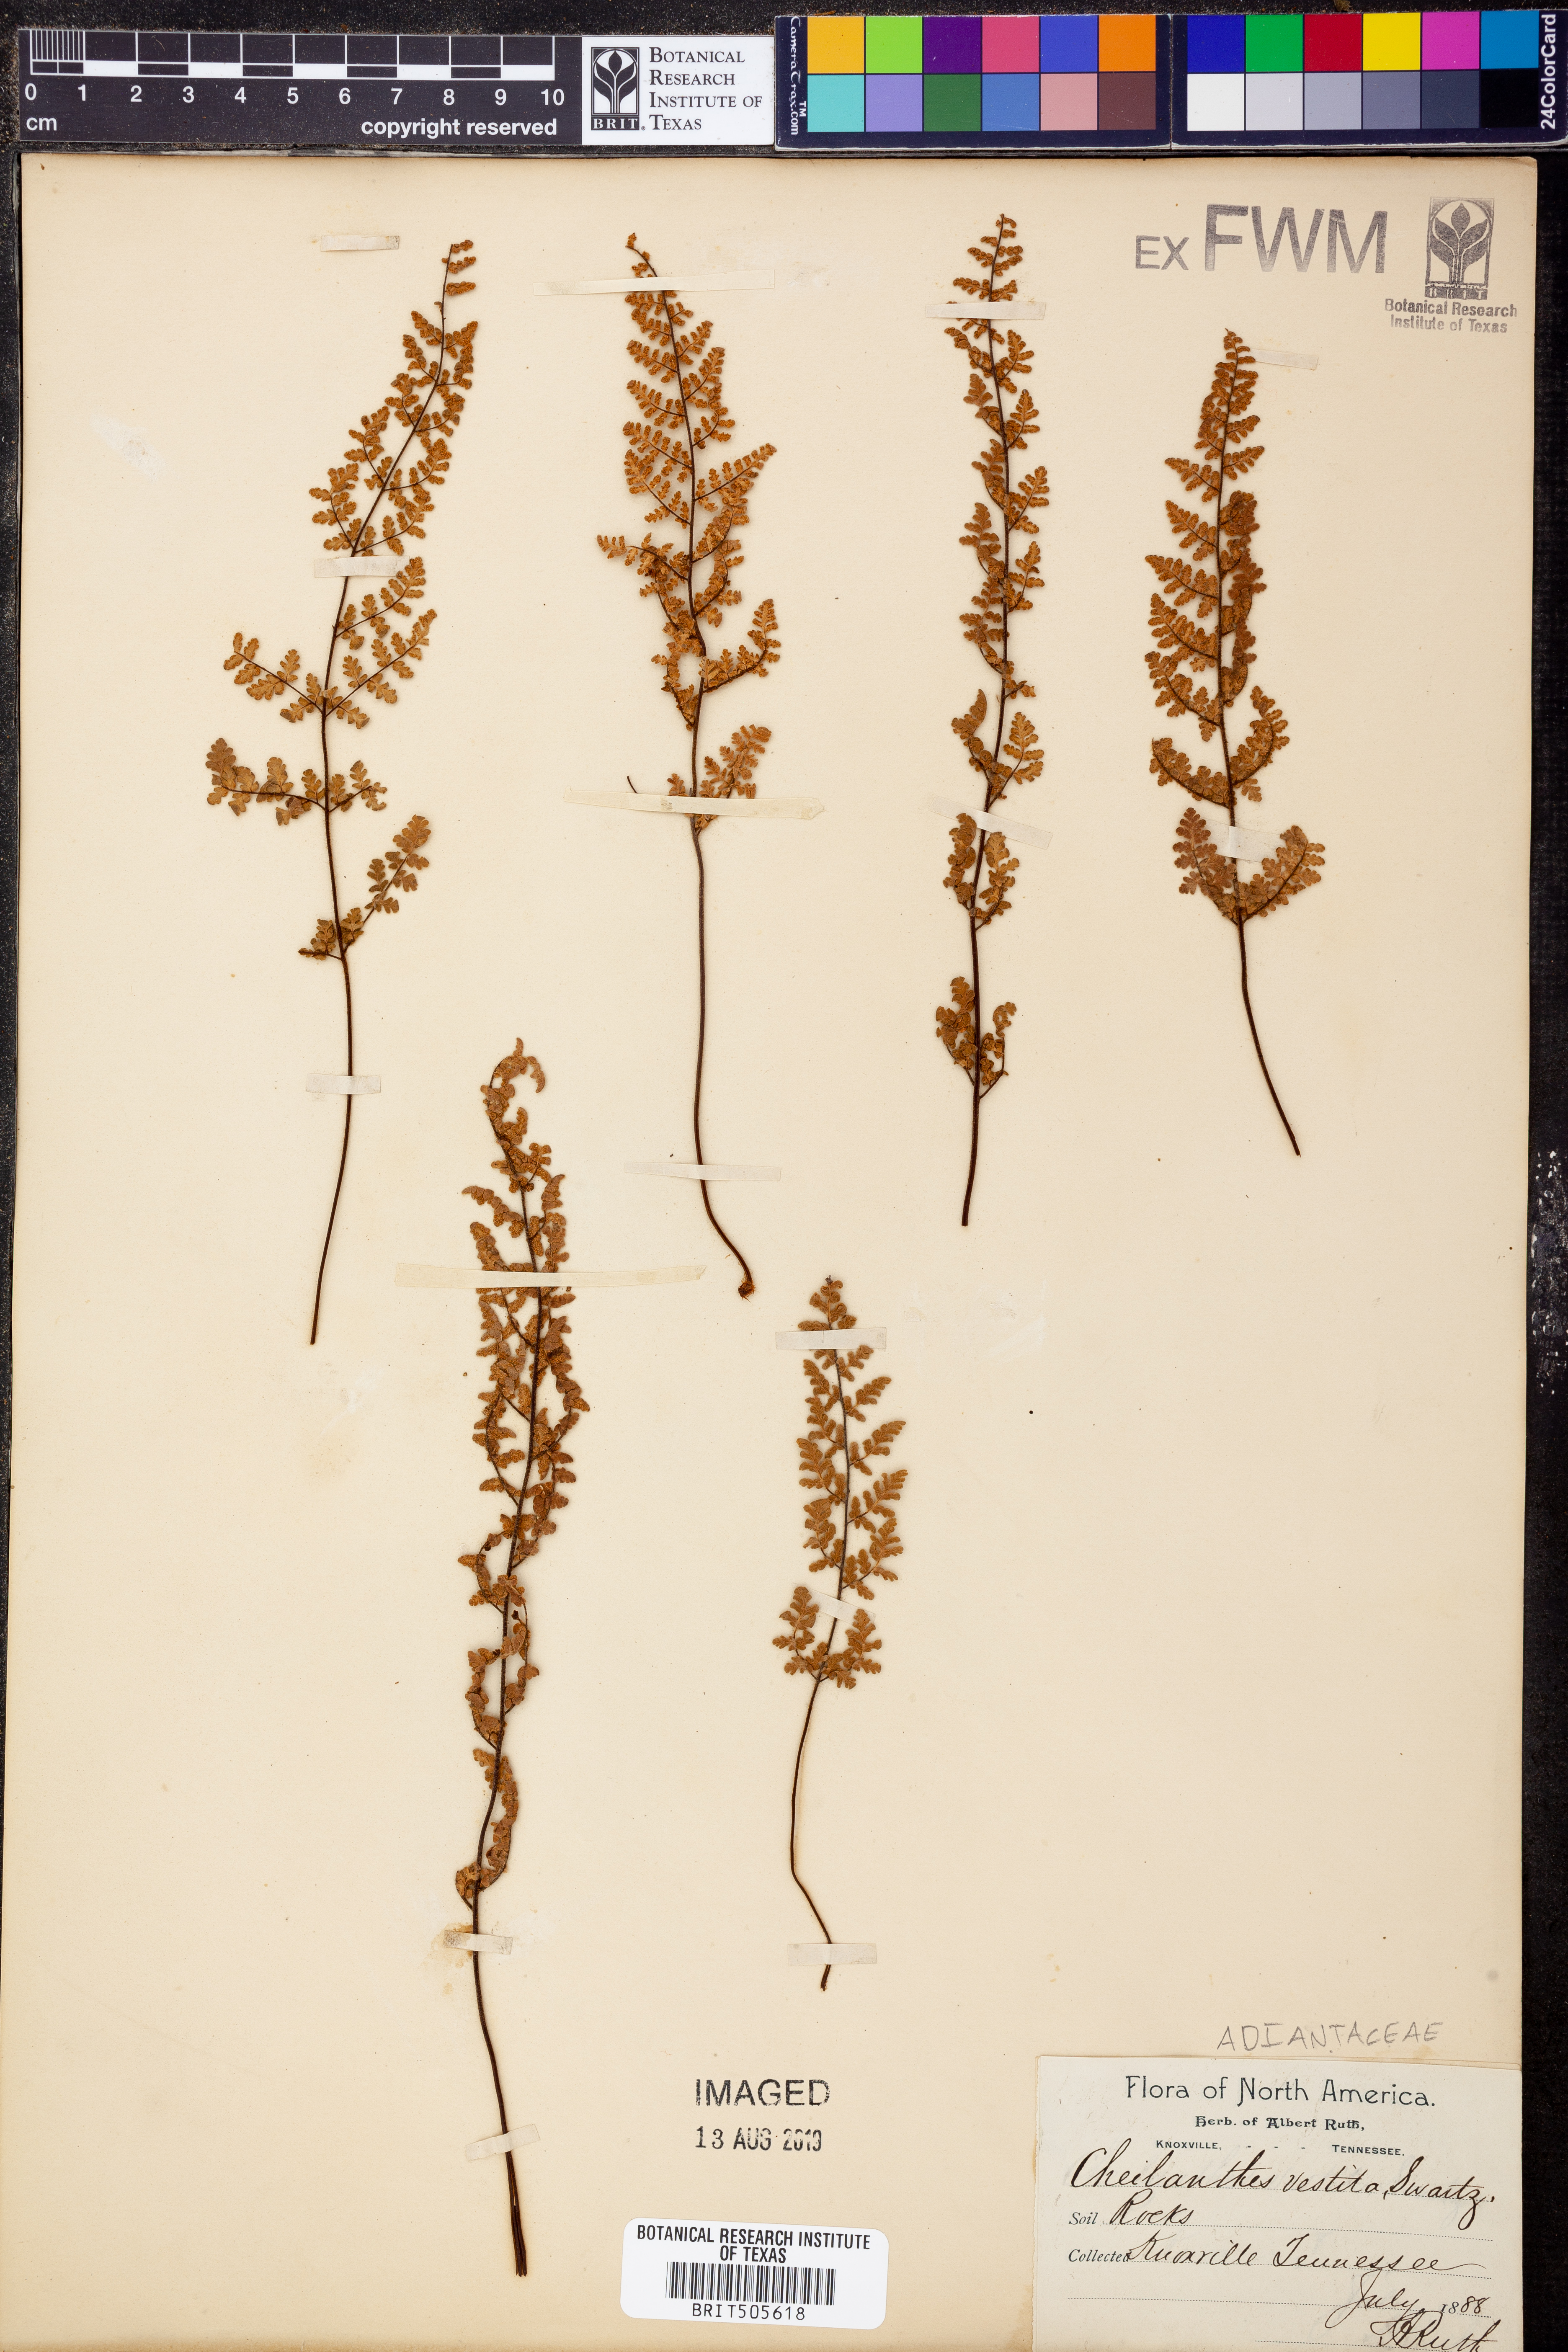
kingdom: Plantae
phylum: Tracheophyta
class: Polypodiopsida
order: Polypodiales
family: Pteridaceae
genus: Myriopteris
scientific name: Myriopteris lanosa
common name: Hairy lip fern
